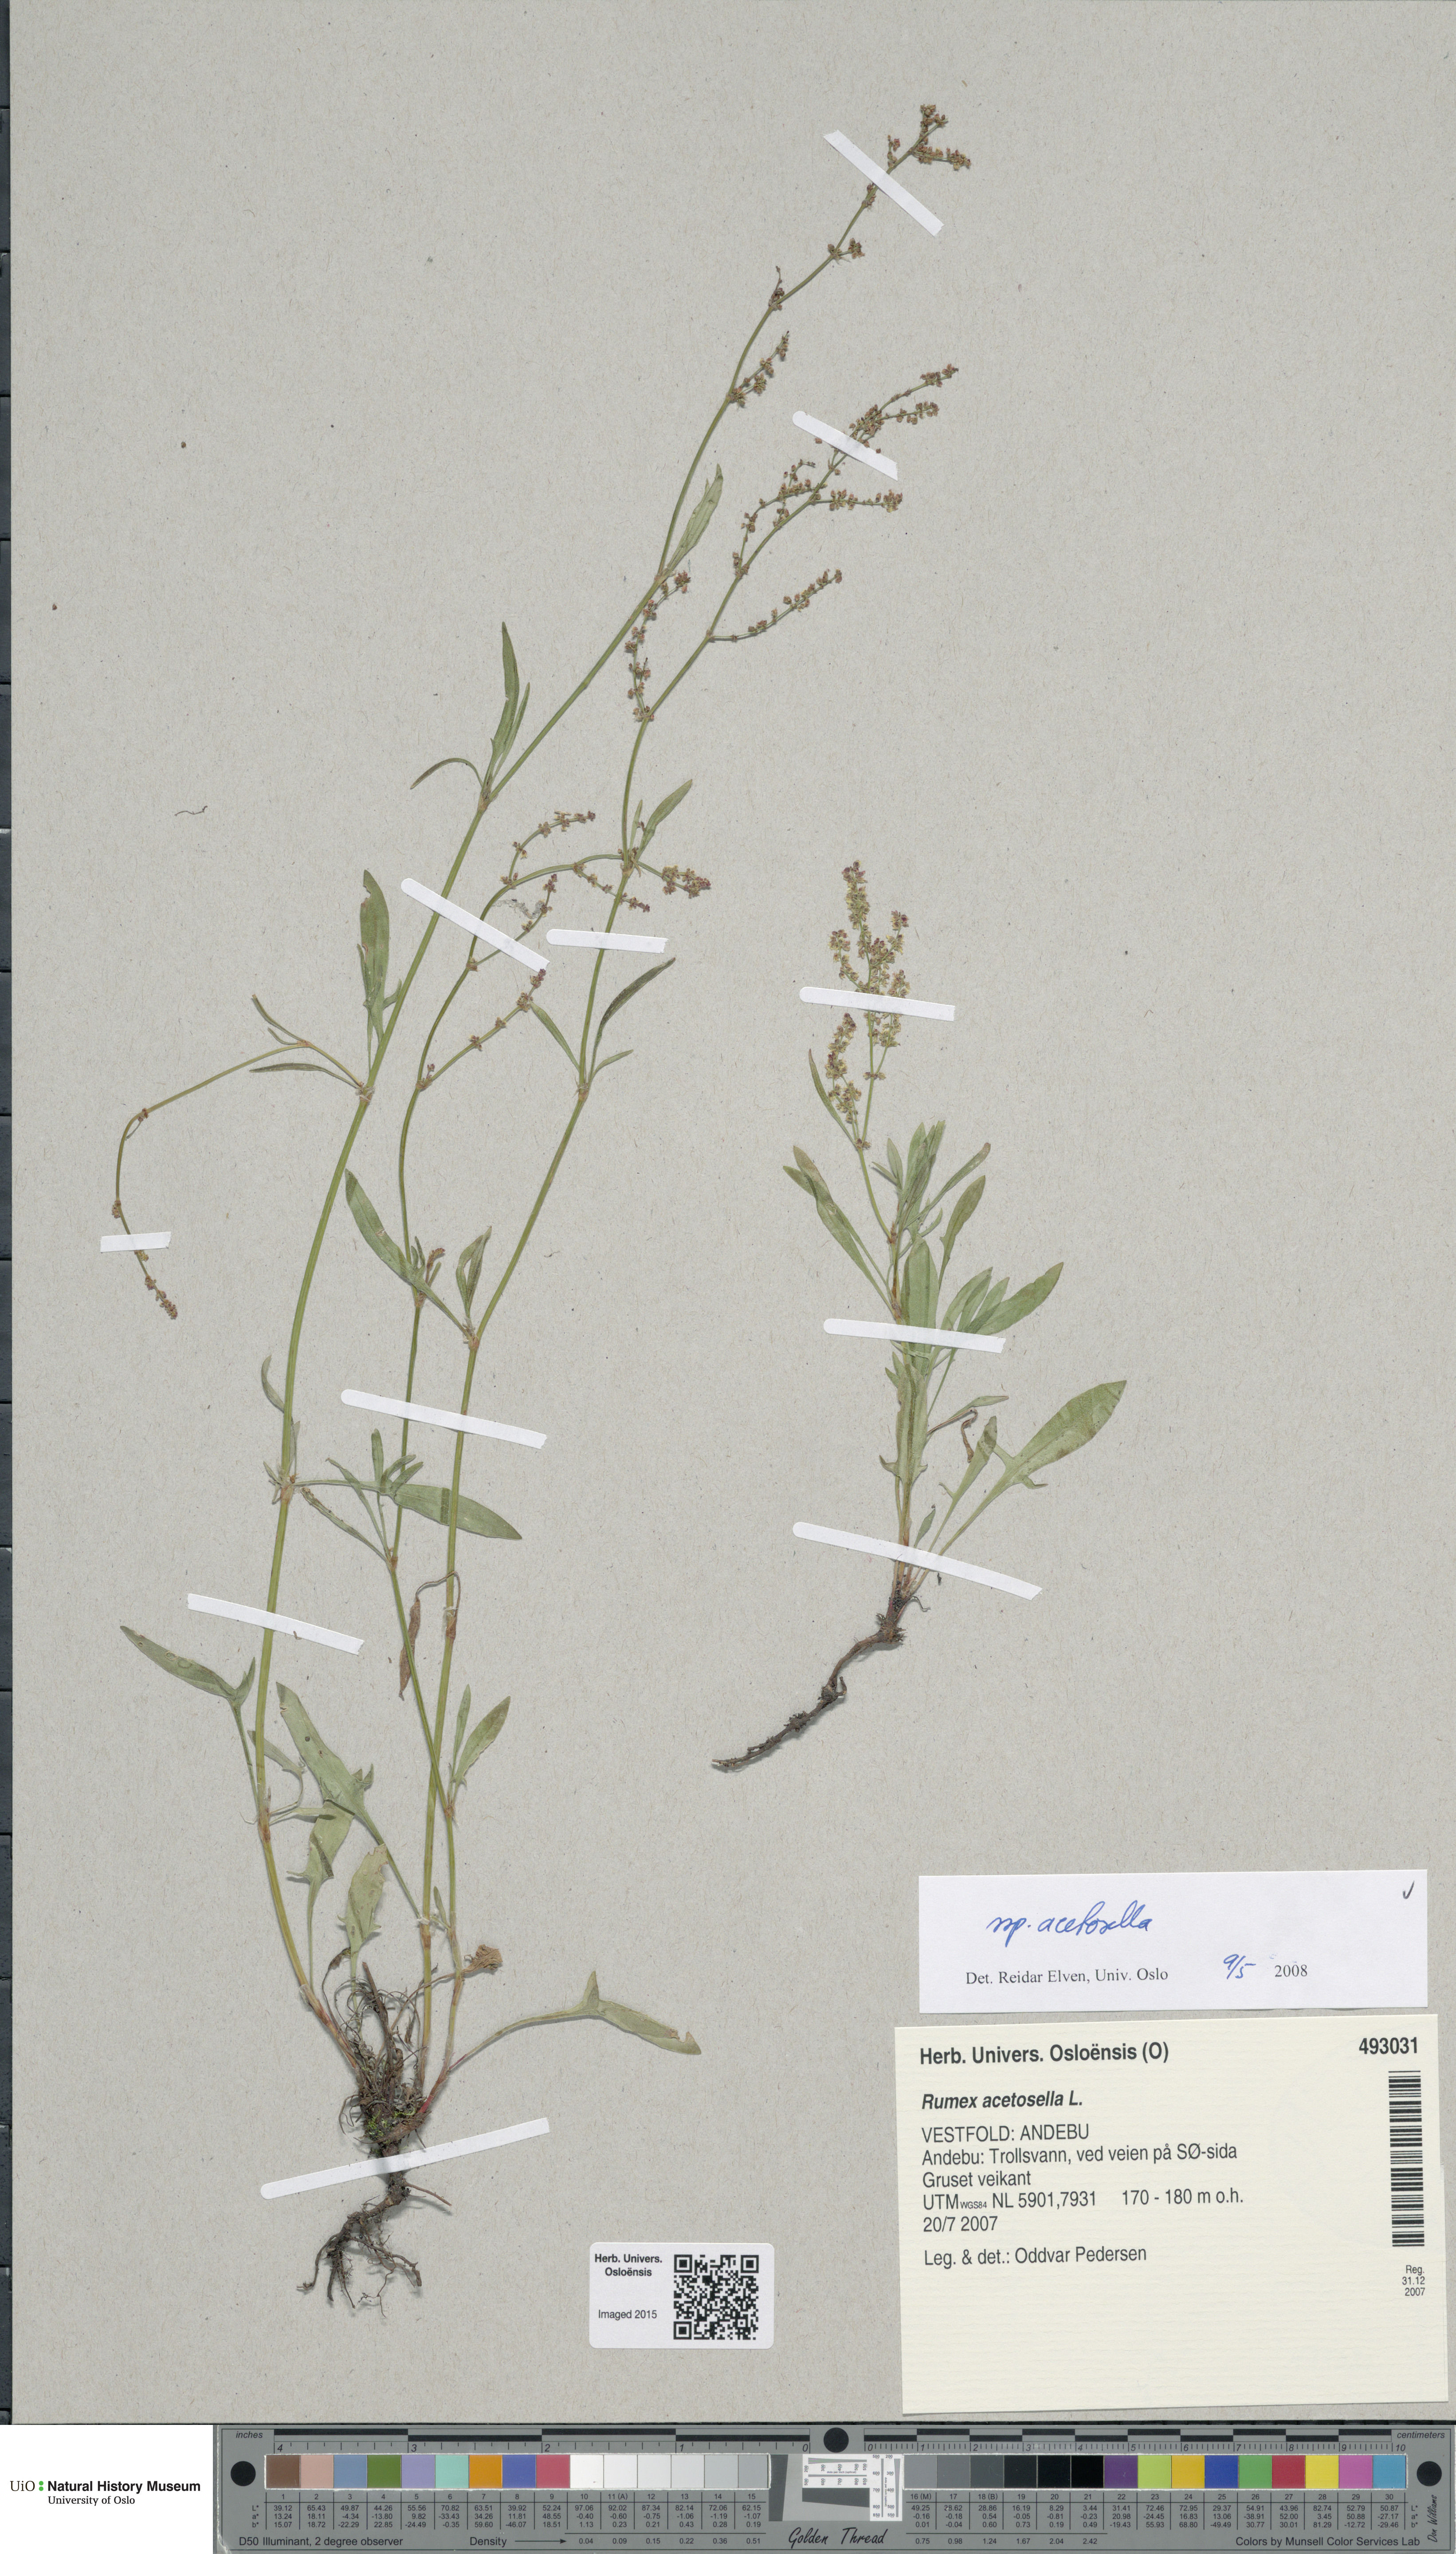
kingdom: Plantae
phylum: Tracheophyta
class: Magnoliopsida
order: Caryophyllales
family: Polygonaceae
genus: Rumex
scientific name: Rumex acetosella
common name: Common sheep sorrel
